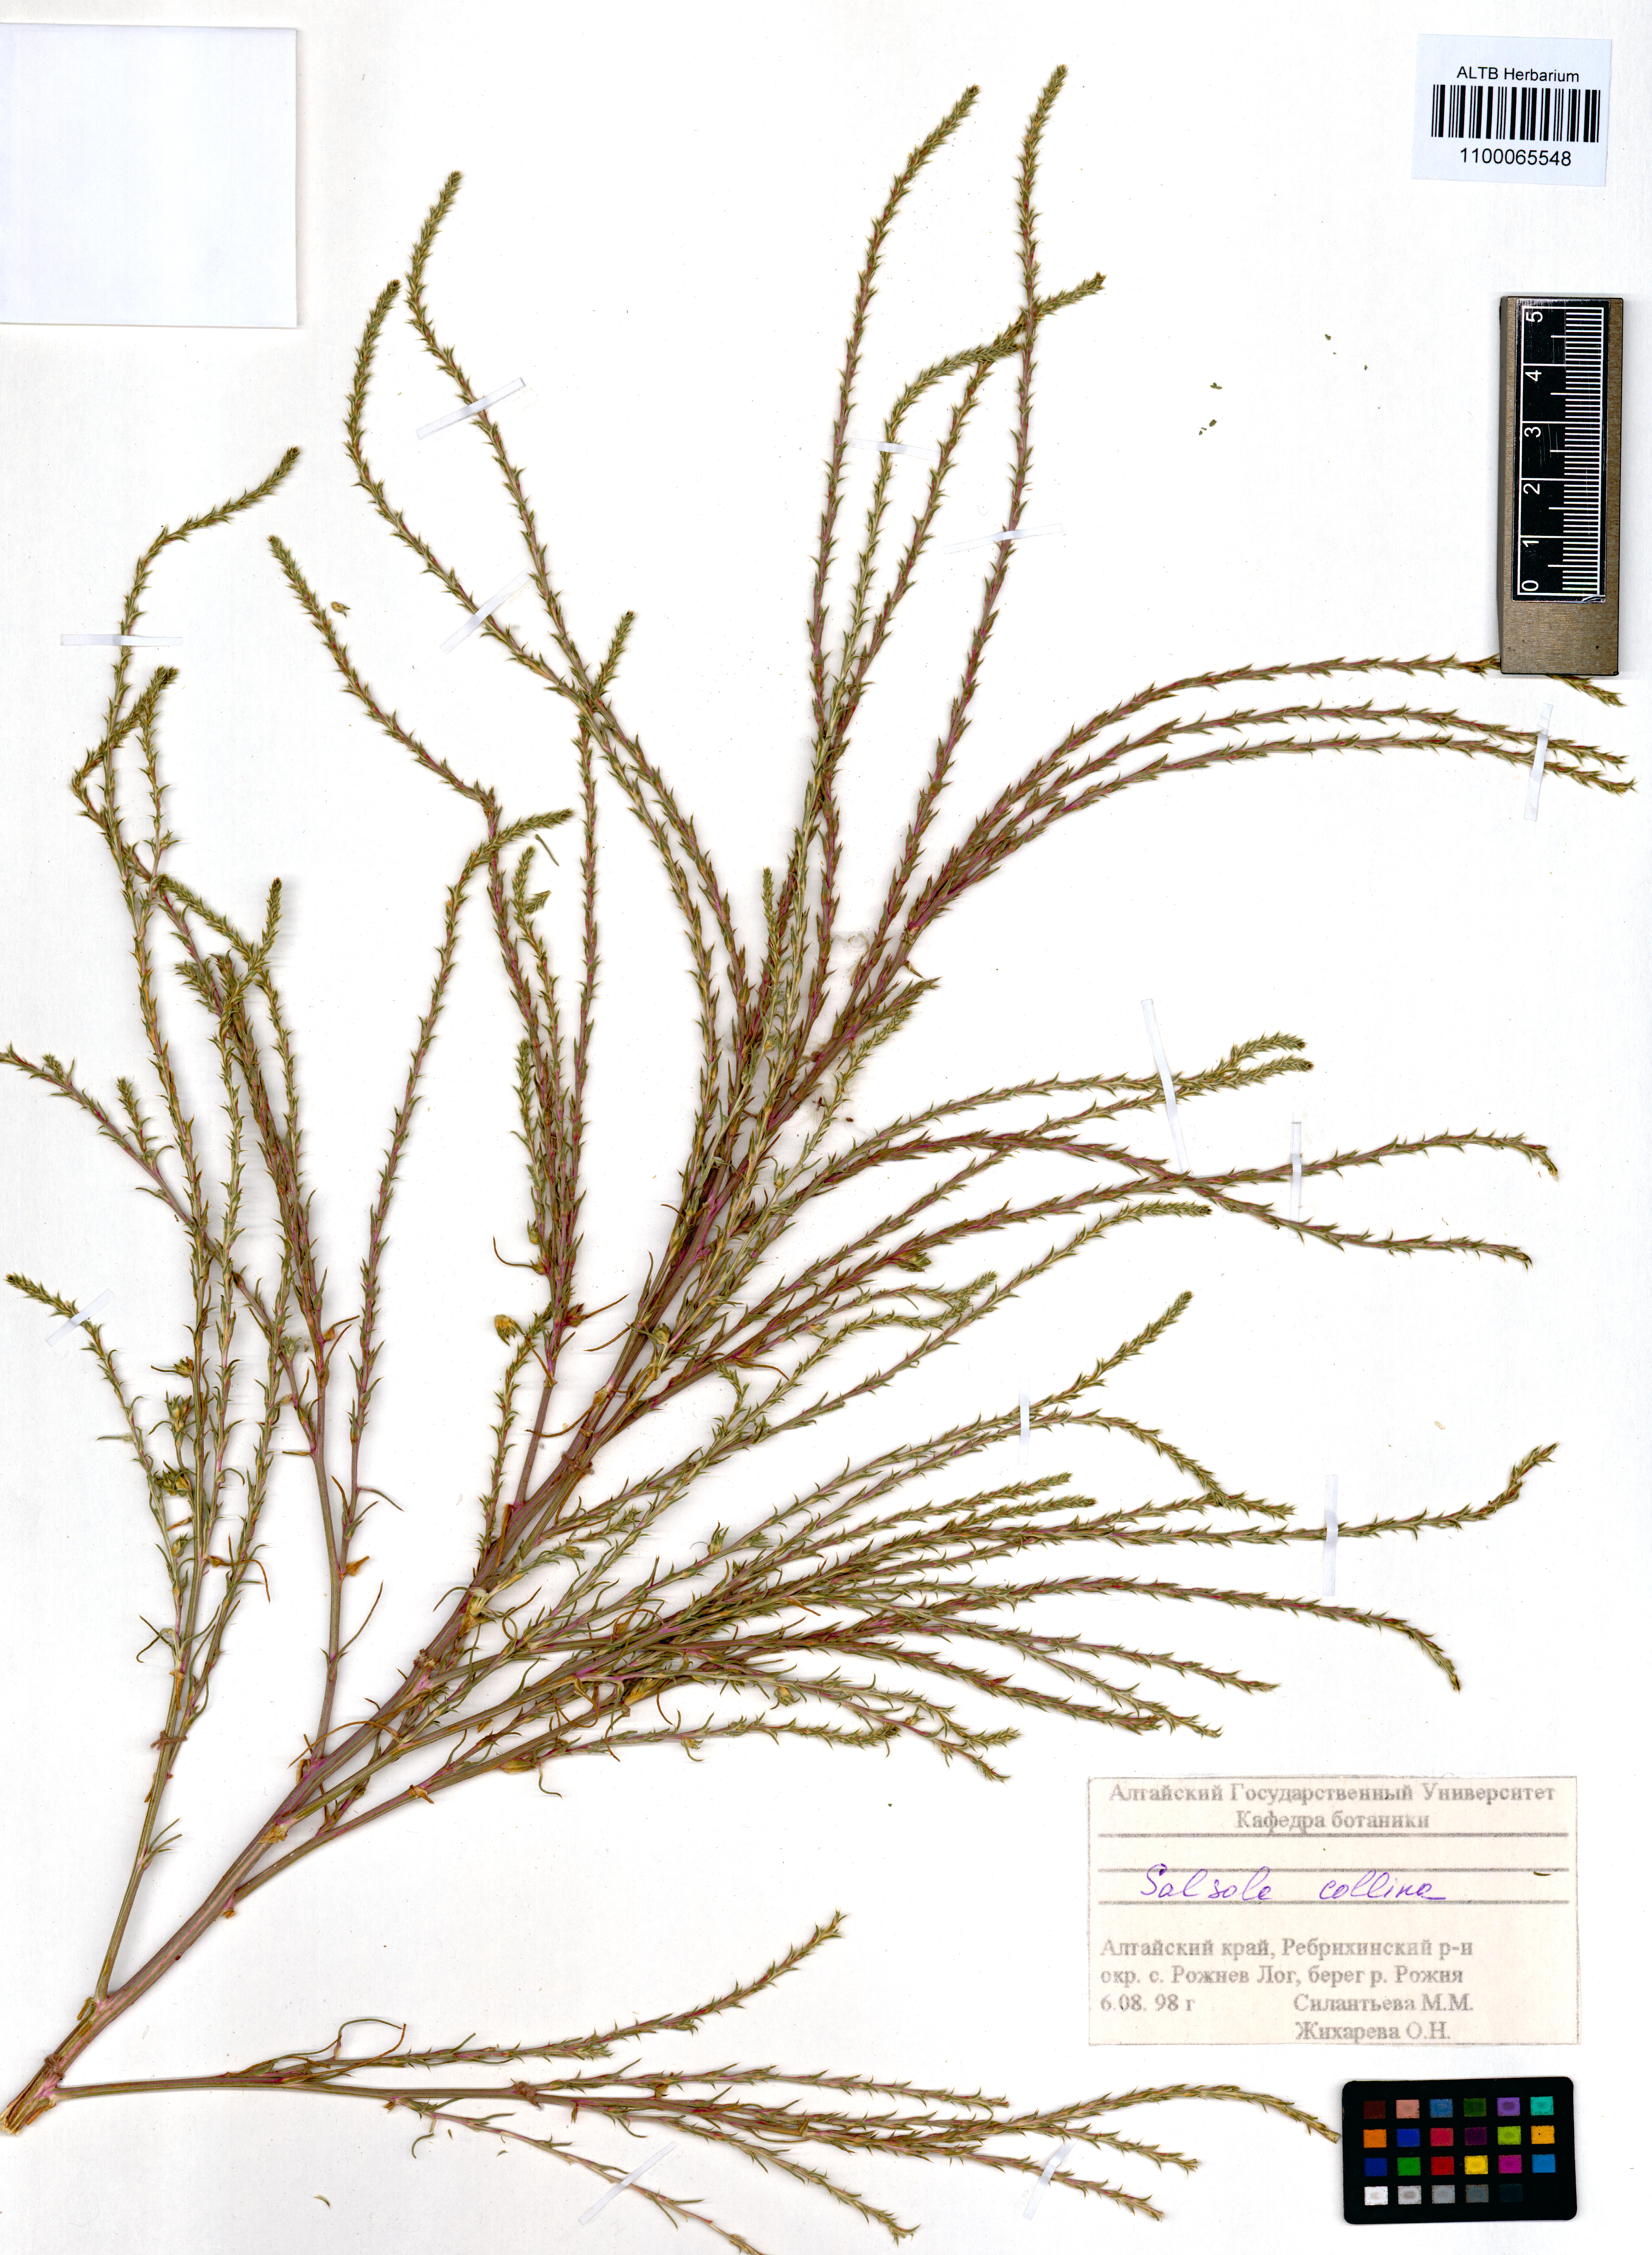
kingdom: Plantae
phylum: Tracheophyta
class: Magnoliopsida
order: Caryophyllales
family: Amaranthaceae
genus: Salsola
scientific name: Salsola collina
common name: Tumbleweed
